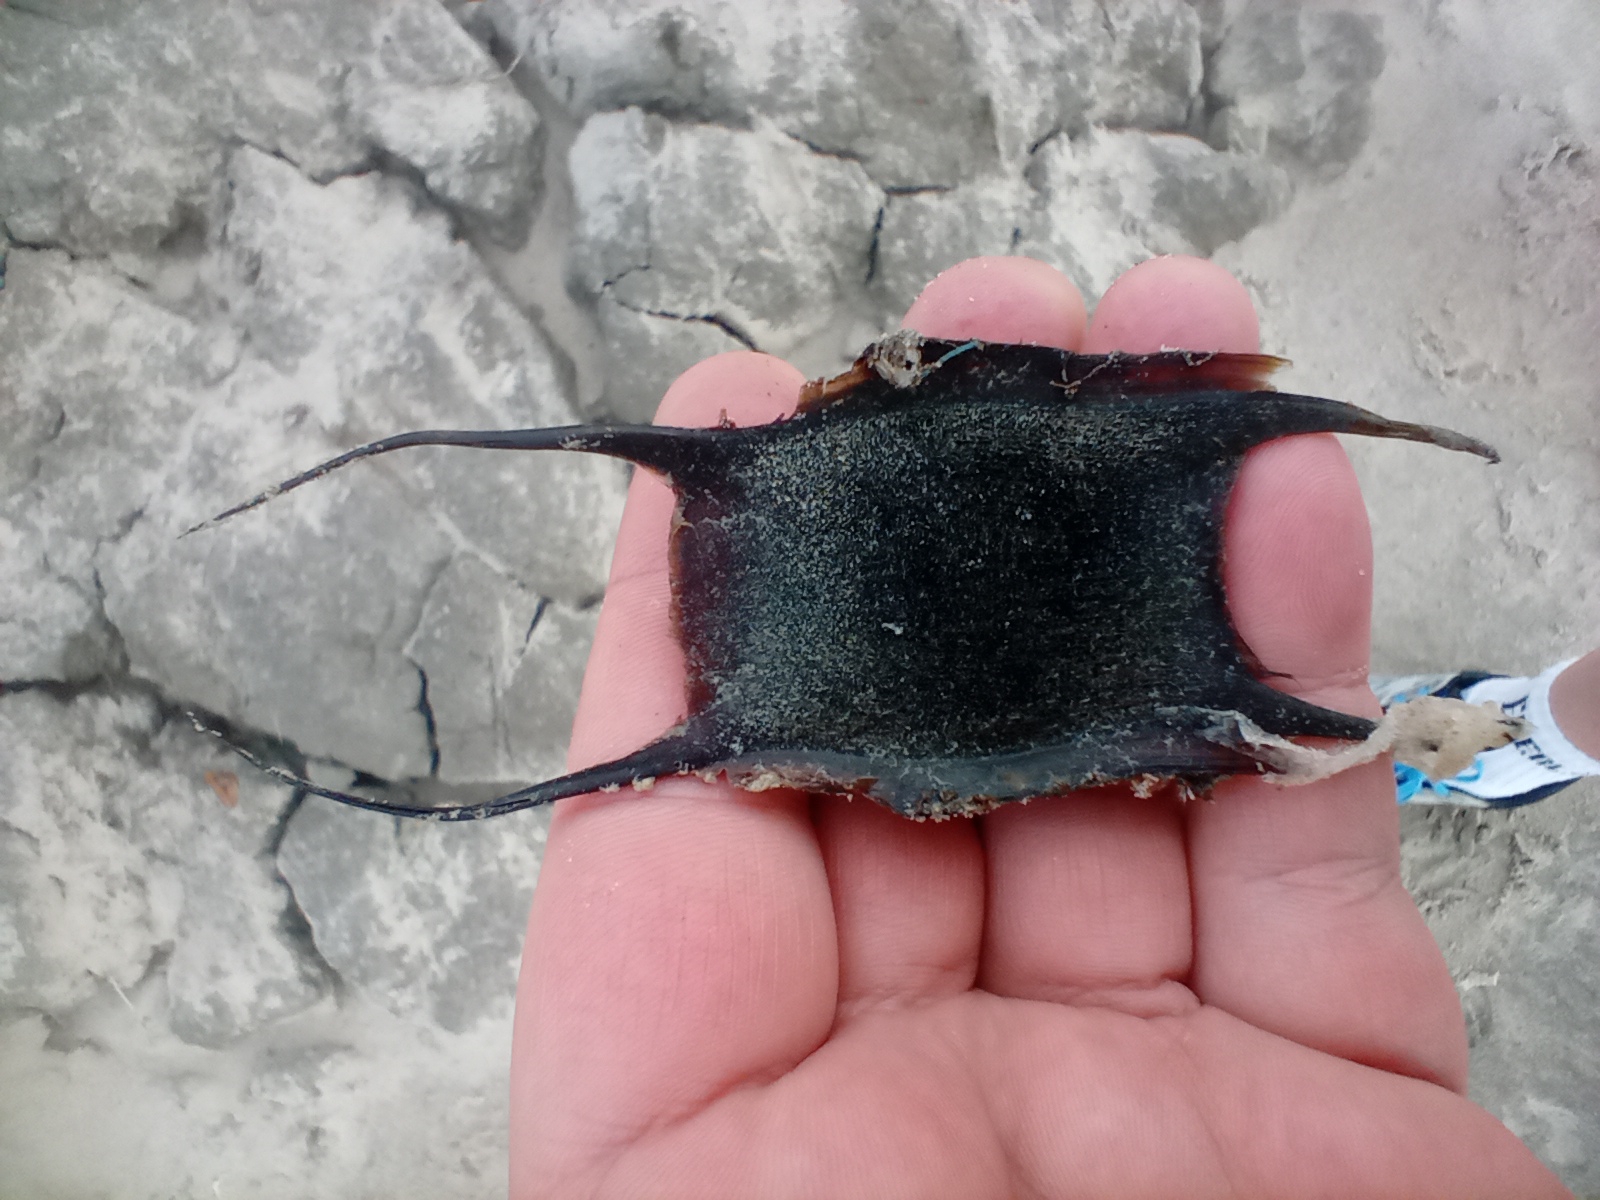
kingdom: Animalia
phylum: Chordata
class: Elasmobranchii
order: Rajiformes
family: Rajidae
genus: Amblyraja
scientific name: Amblyraja radiata
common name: Tærbe
